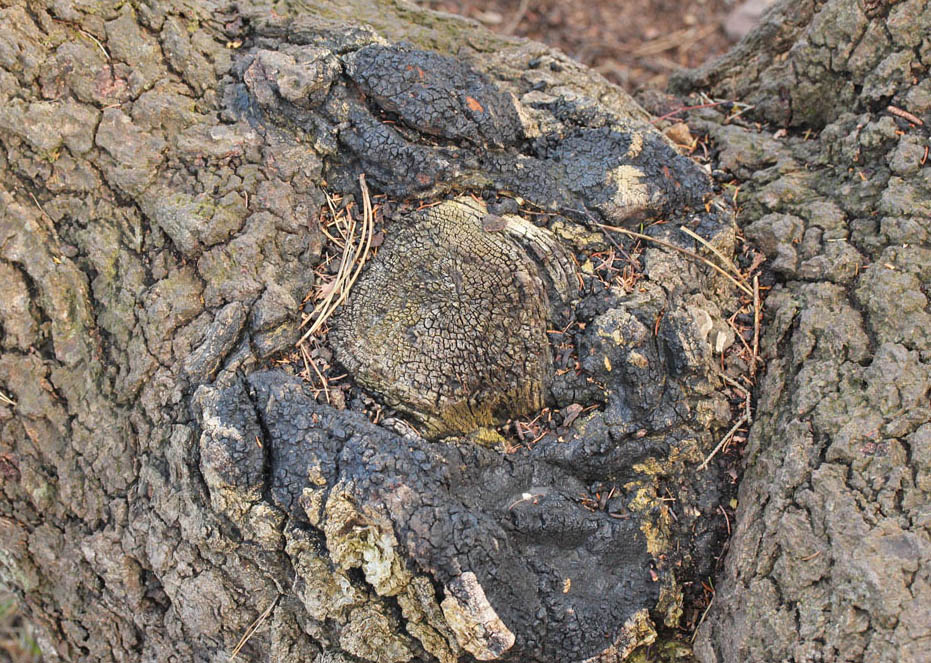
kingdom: Fungi
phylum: Basidiomycota
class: Agaricomycetes
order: Hymenochaetales
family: Hymenochaetaceae
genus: Inonotus
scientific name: Inonotus obliquus
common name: birke-spejlporesvamp
